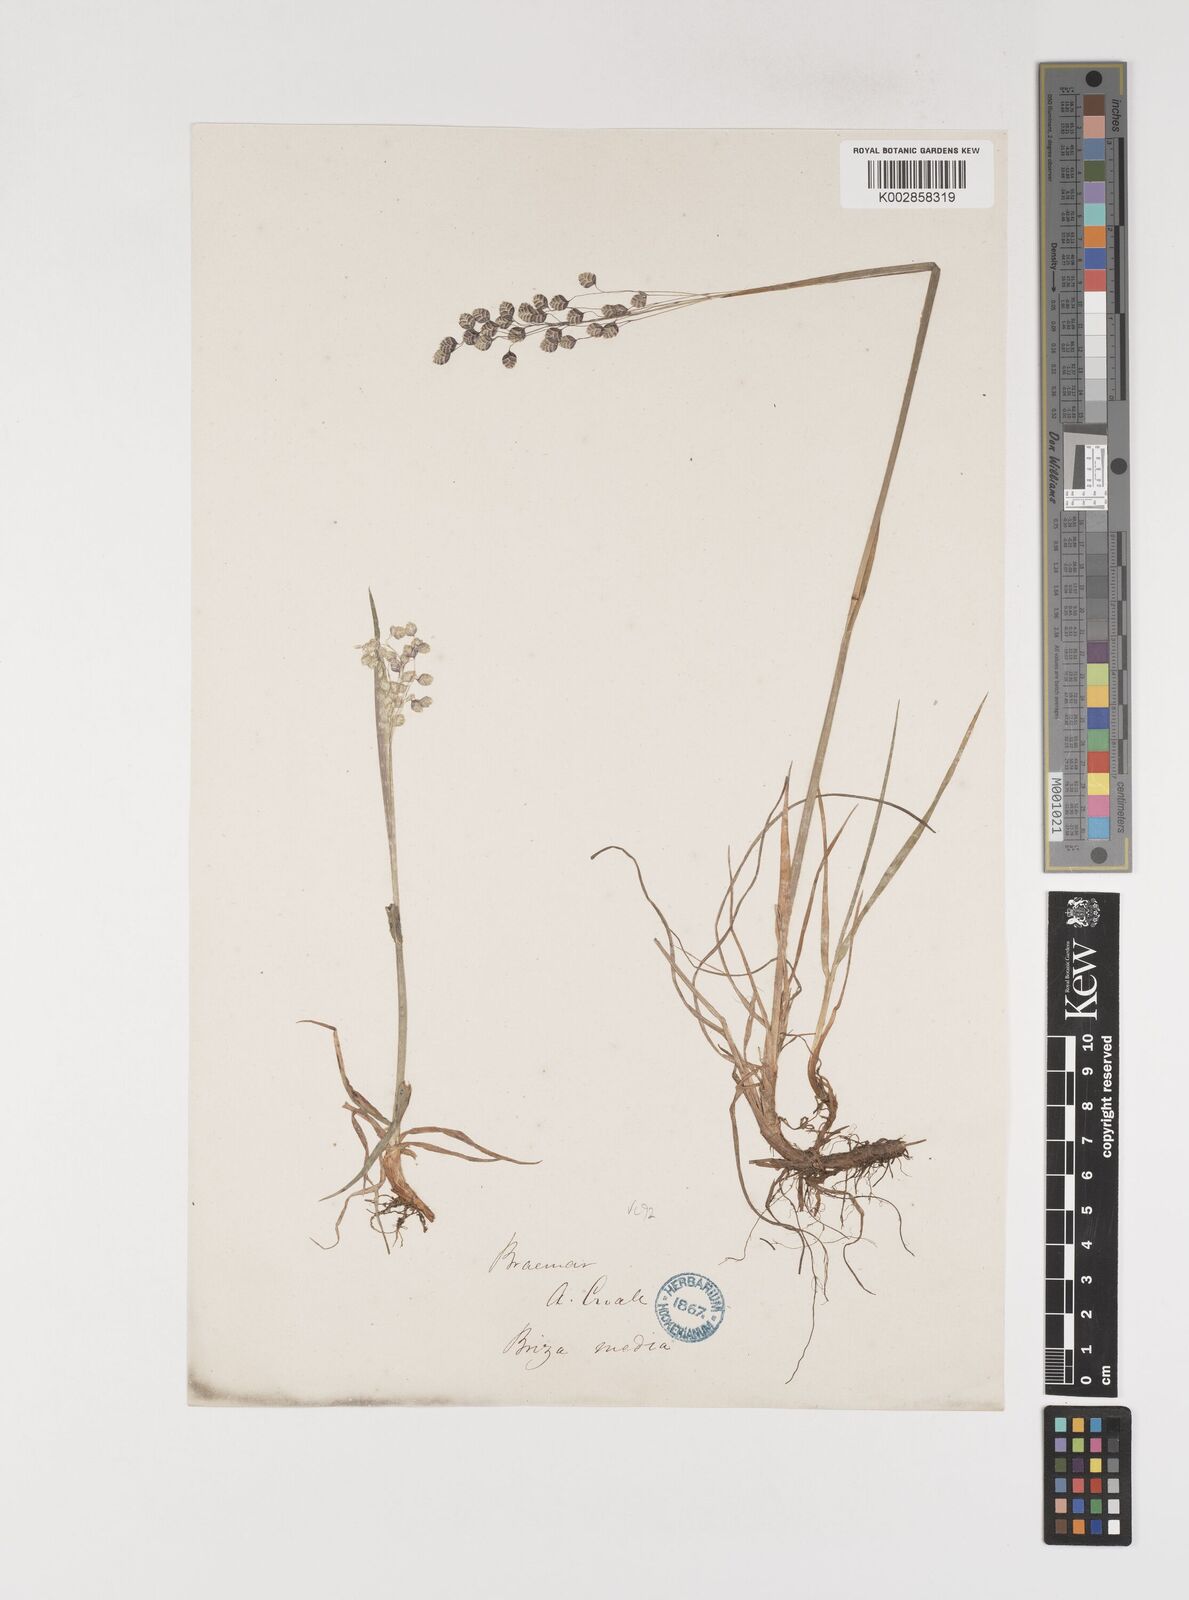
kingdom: Plantae
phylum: Tracheophyta
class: Liliopsida
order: Poales
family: Poaceae
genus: Briza
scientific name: Briza media
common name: Quaking grass
